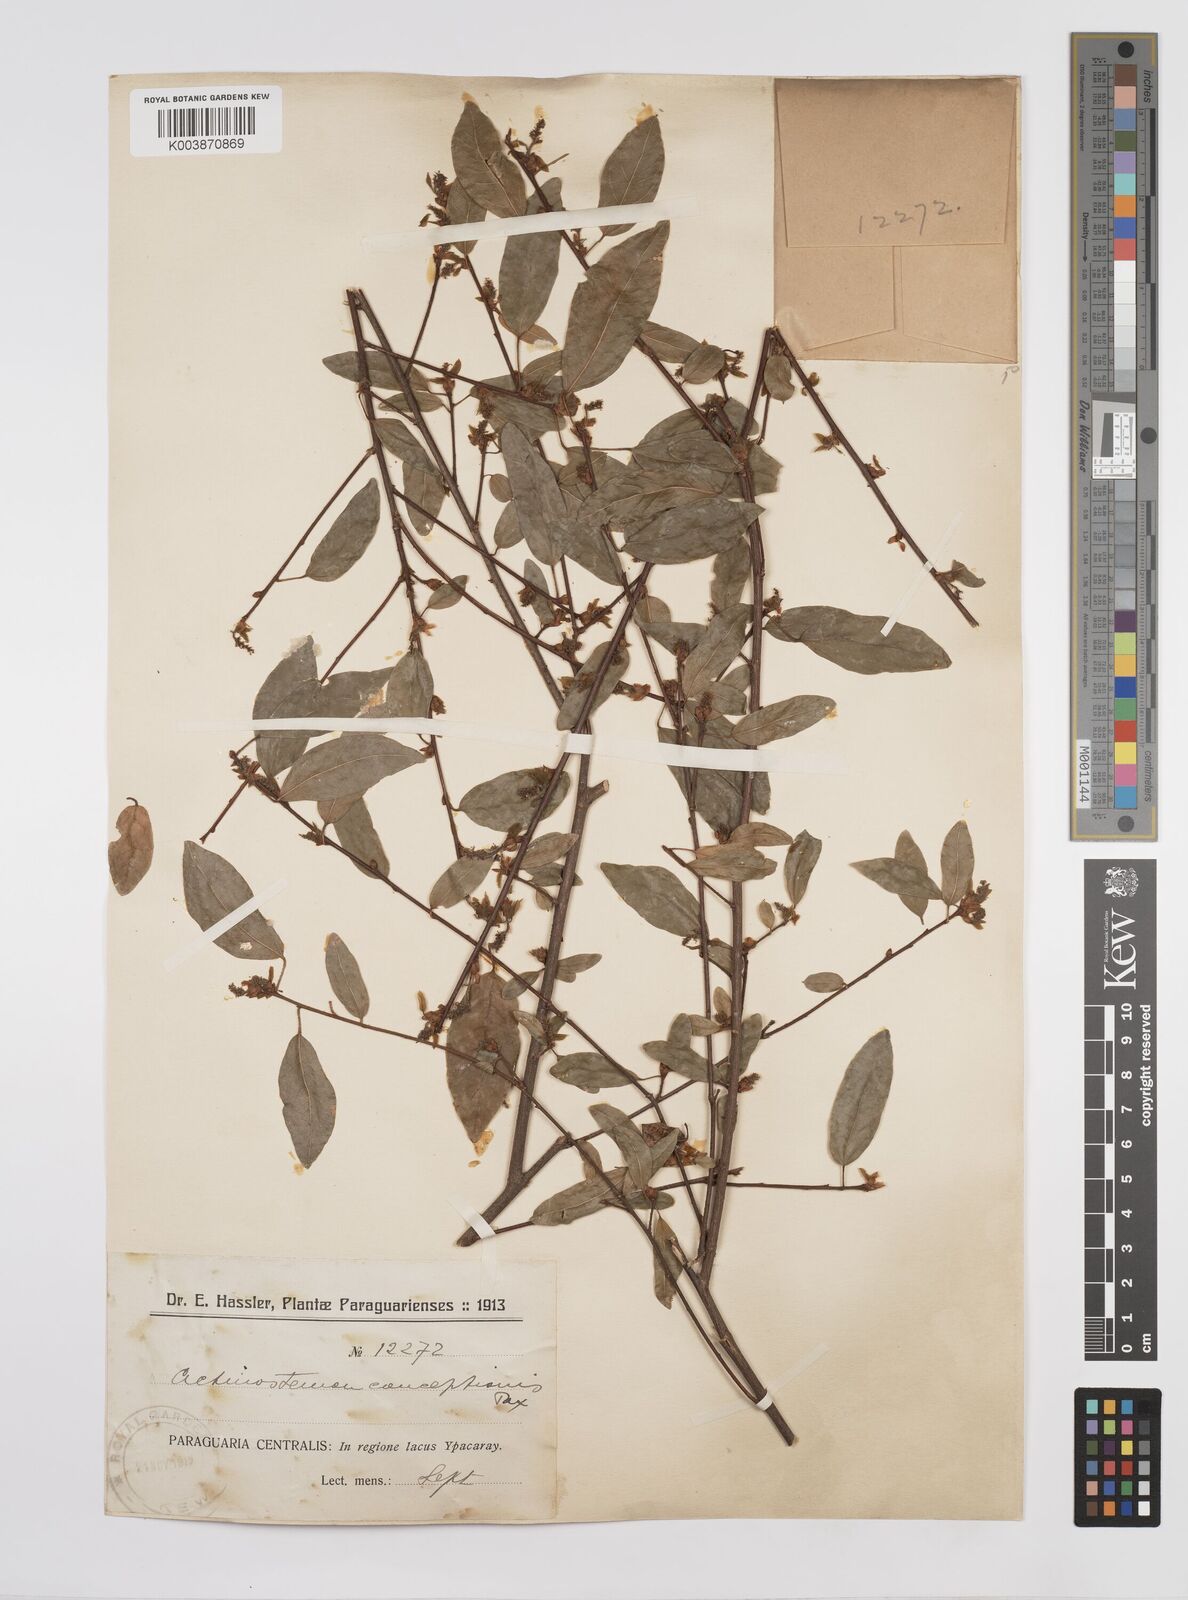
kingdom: Plantae
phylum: Tracheophyta
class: Magnoliopsida
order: Malpighiales
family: Euphorbiaceae
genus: Actinostemon
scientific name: Actinostemon concepcionis
